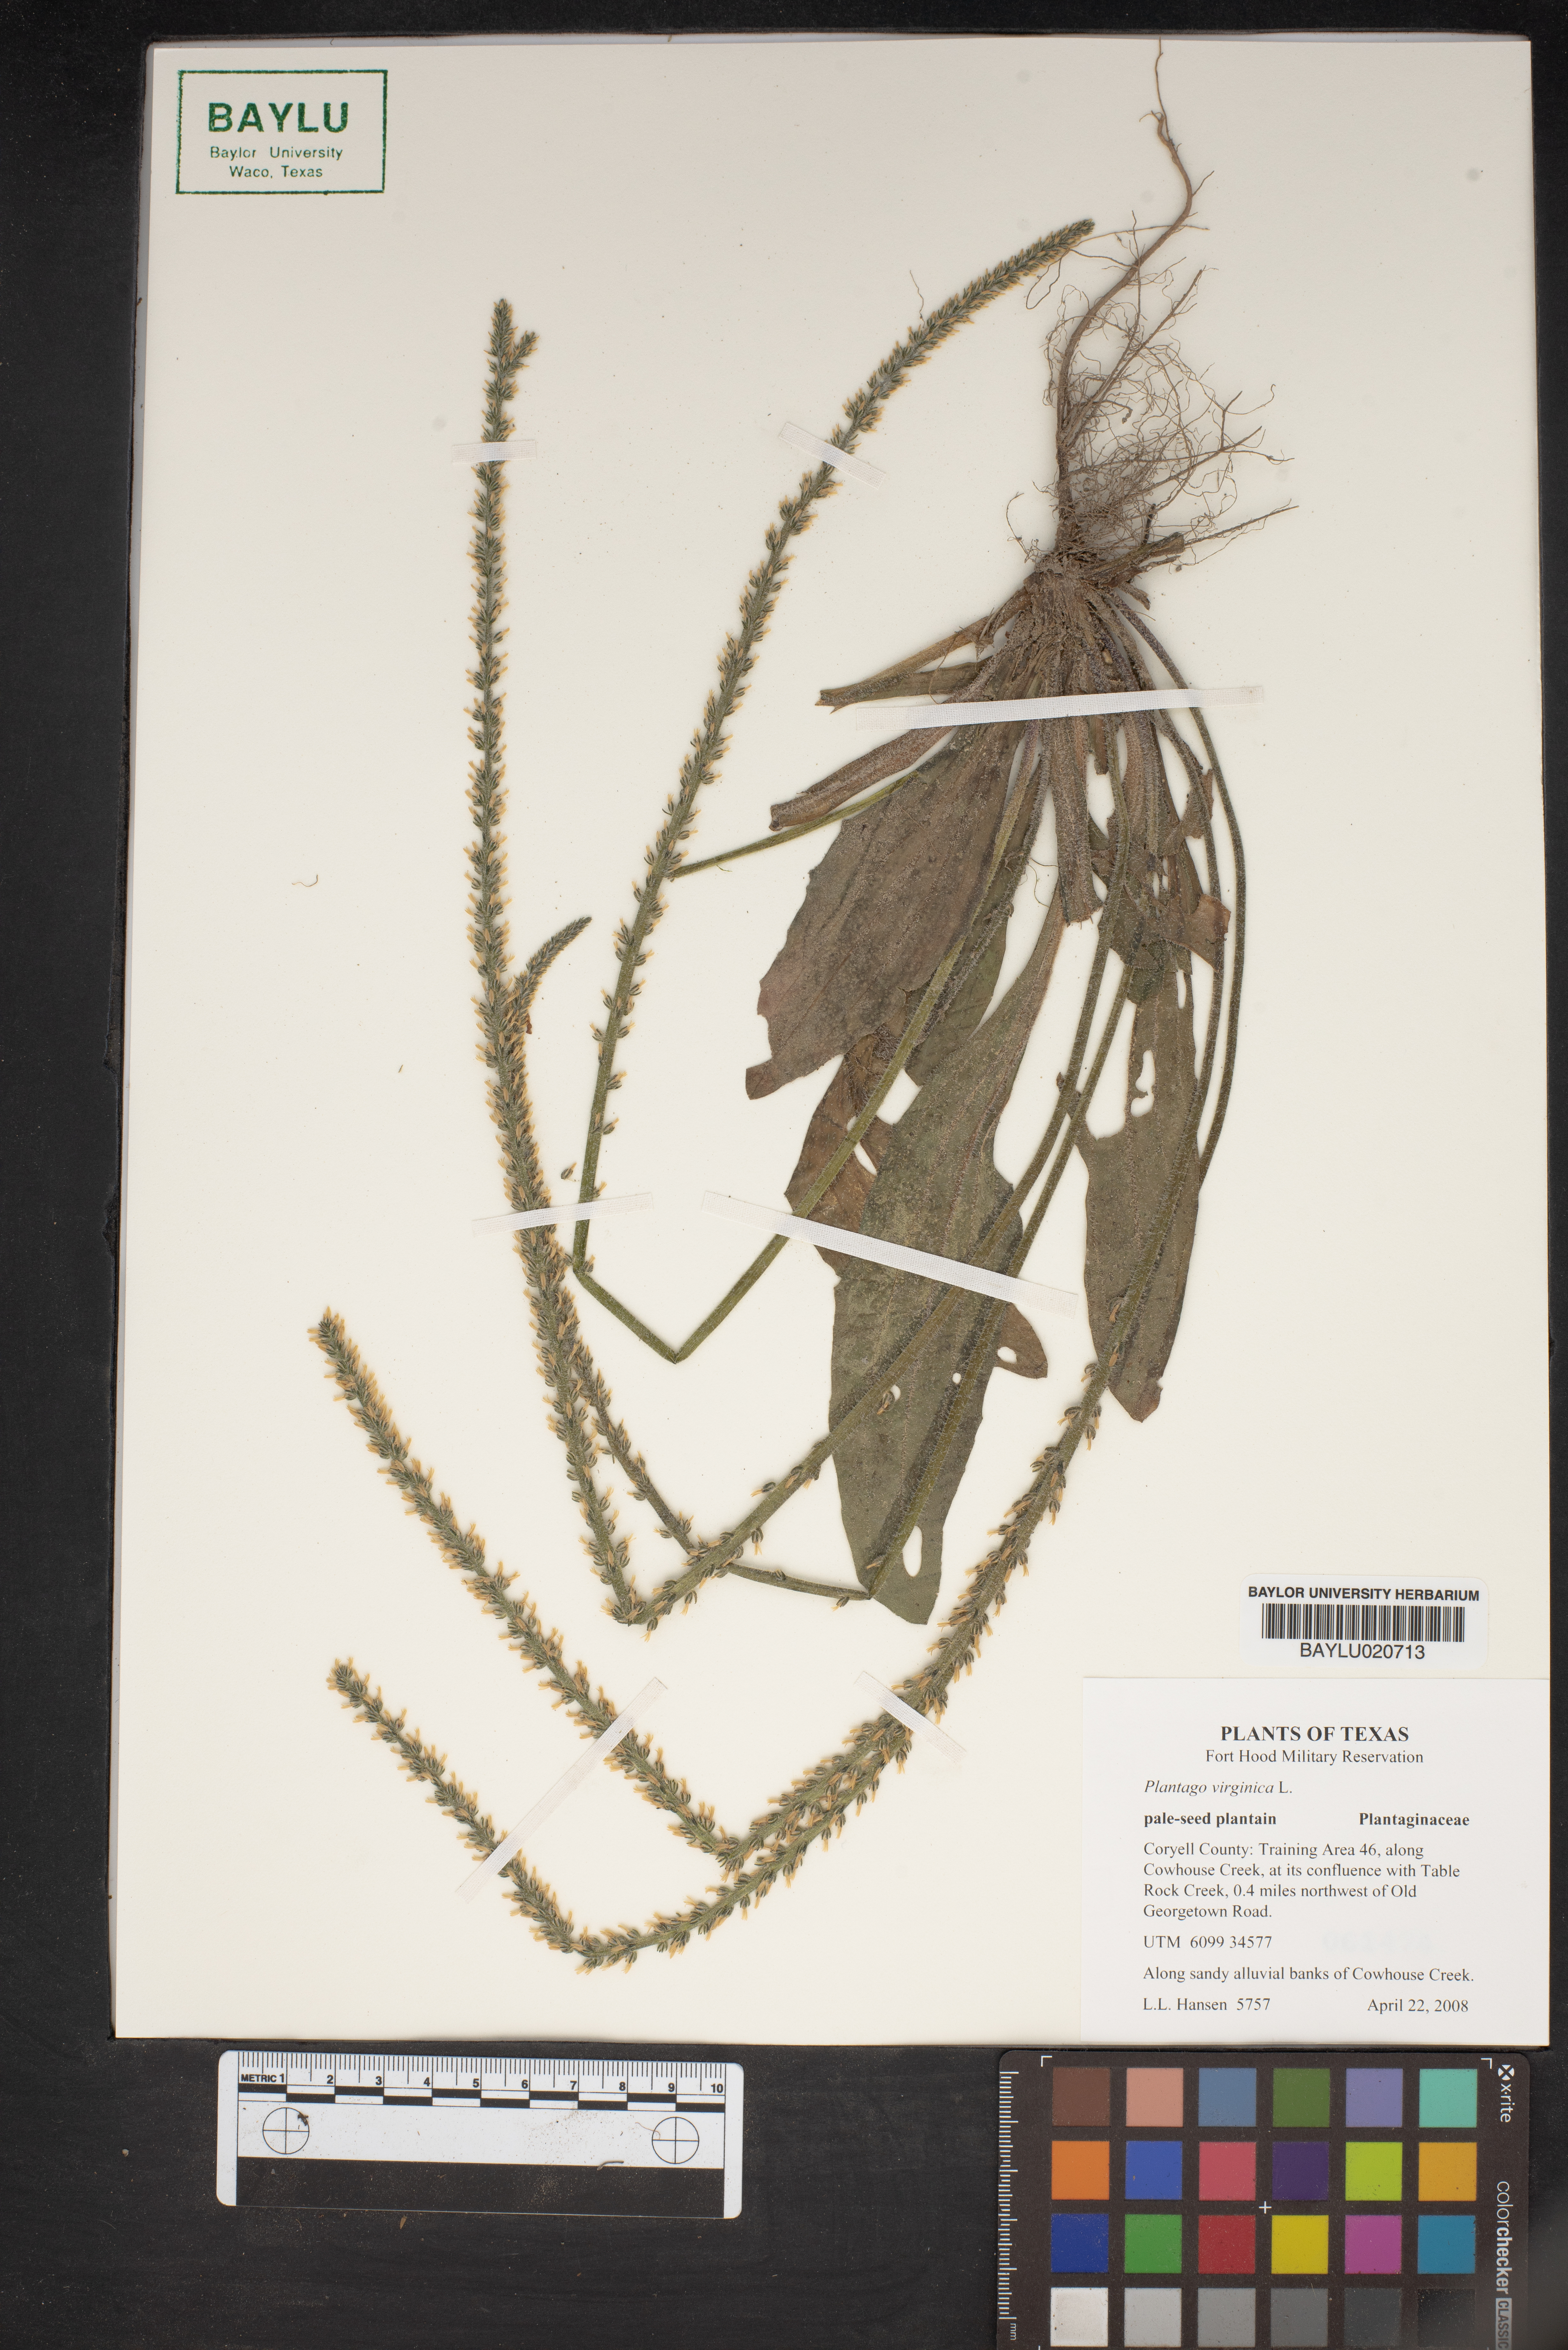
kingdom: Plantae
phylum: Tracheophyta
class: Magnoliopsida
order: Lamiales
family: Plantaginaceae
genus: Plantago
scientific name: Plantago virginica
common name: Hoary plantain
